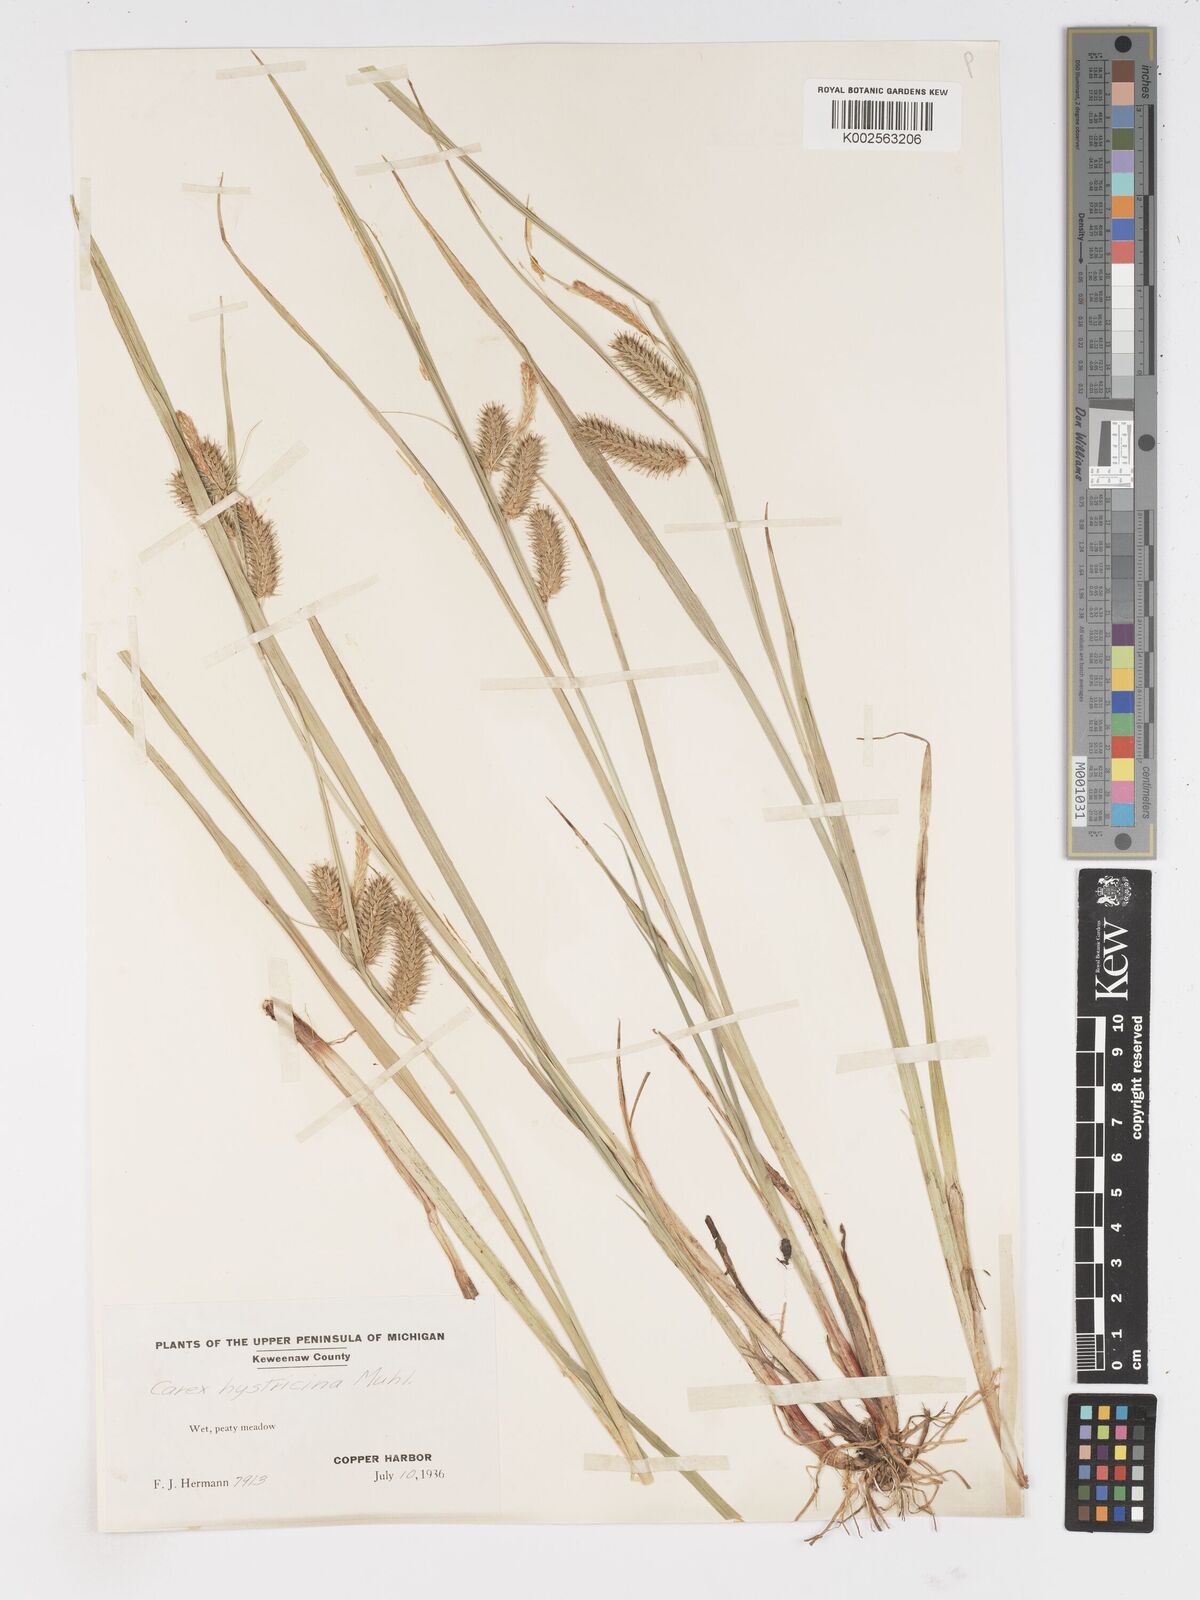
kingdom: Plantae
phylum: Tracheophyta
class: Liliopsida
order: Poales
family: Cyperaceae
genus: Carex
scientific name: Carex hystericina
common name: Bottlebrush sedge
